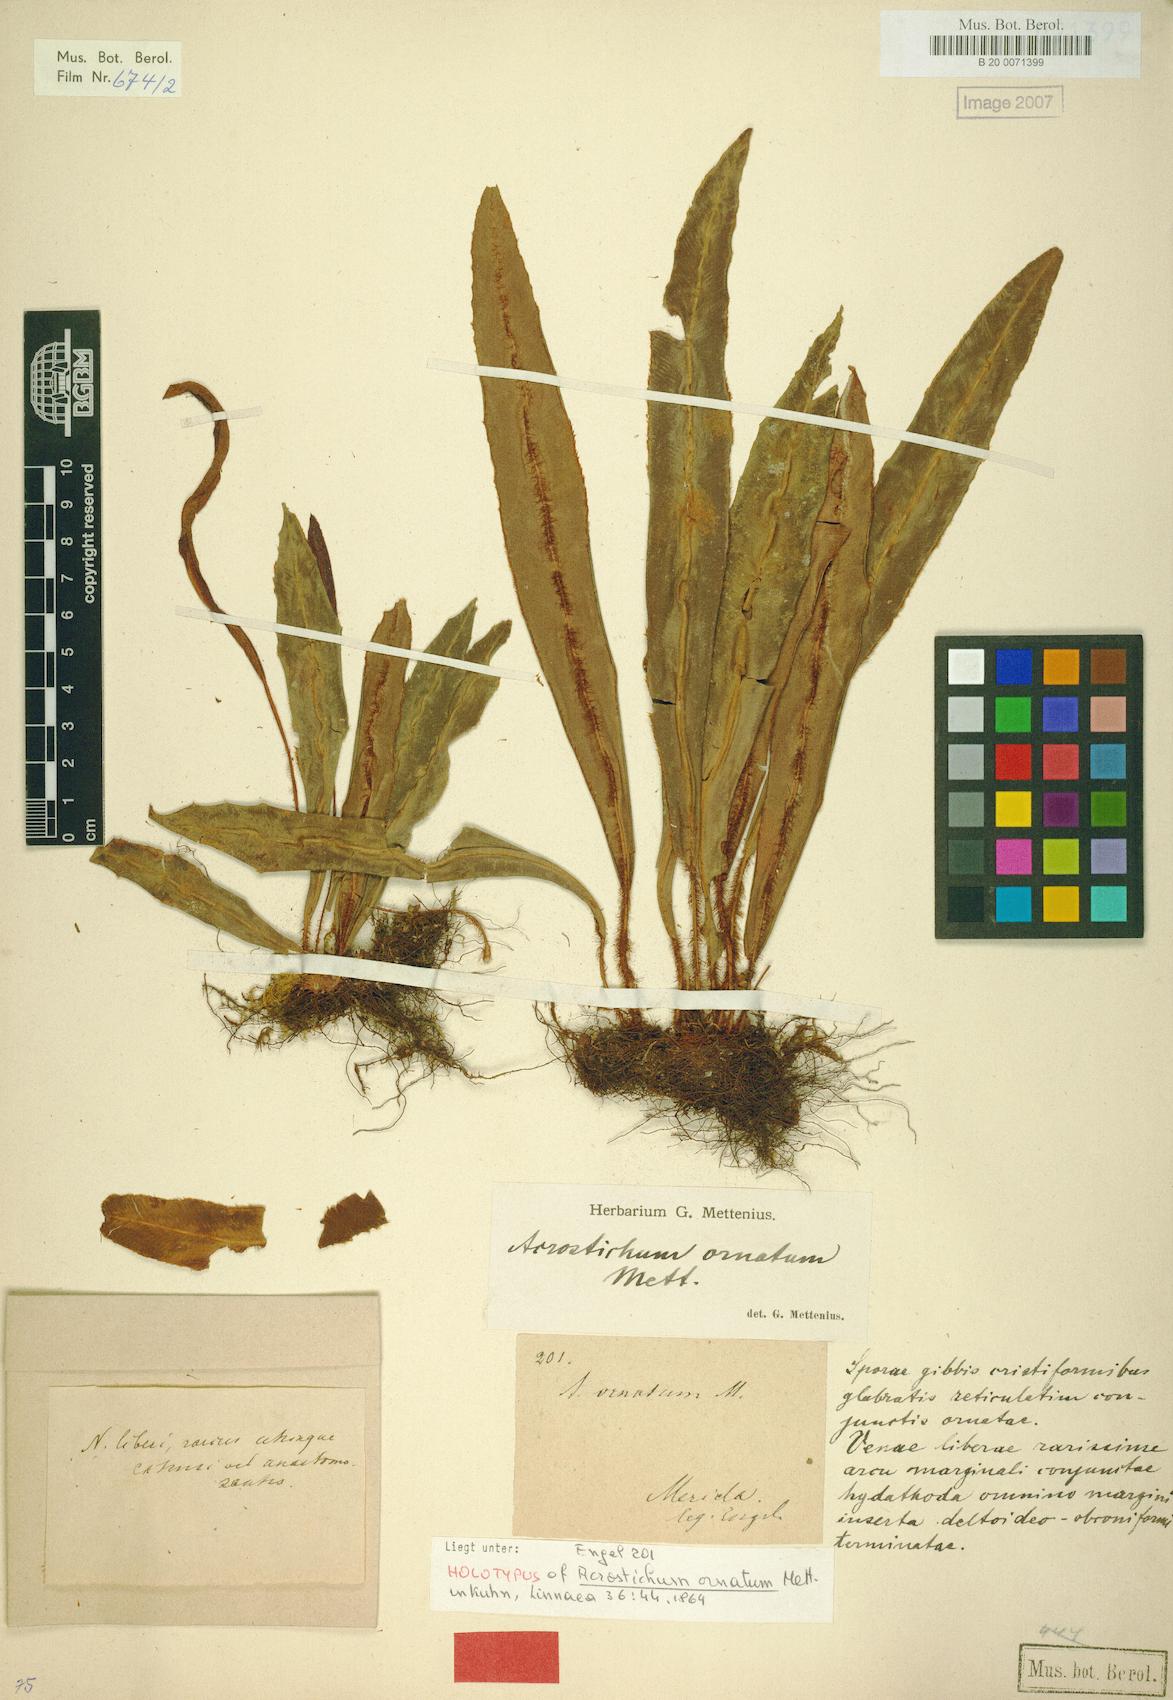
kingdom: Plantae
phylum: Tracheophyta
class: Polypodiopsida
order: Polypodiales
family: Dryopteridaceae
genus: Elaphoglossum
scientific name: Elaphoglossum ornatum
